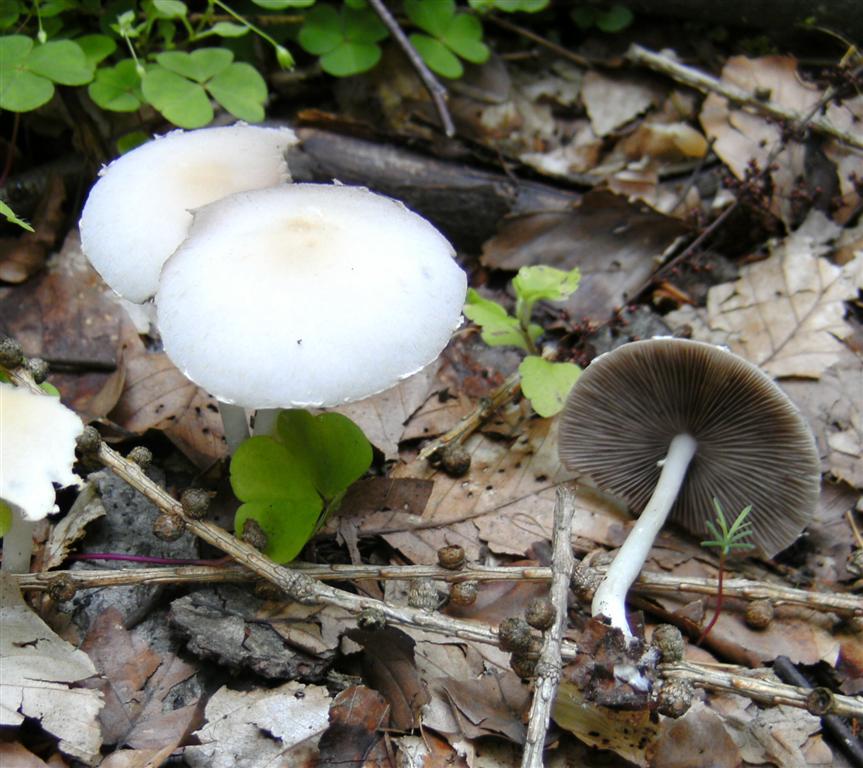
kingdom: Fungi
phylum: Basidiomycota
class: Agaricomycetes
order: Agaricales
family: Psathyrellaceae
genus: Candolleomyces
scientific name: Candolleomyces candolleanus
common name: Candolles mørkhat
